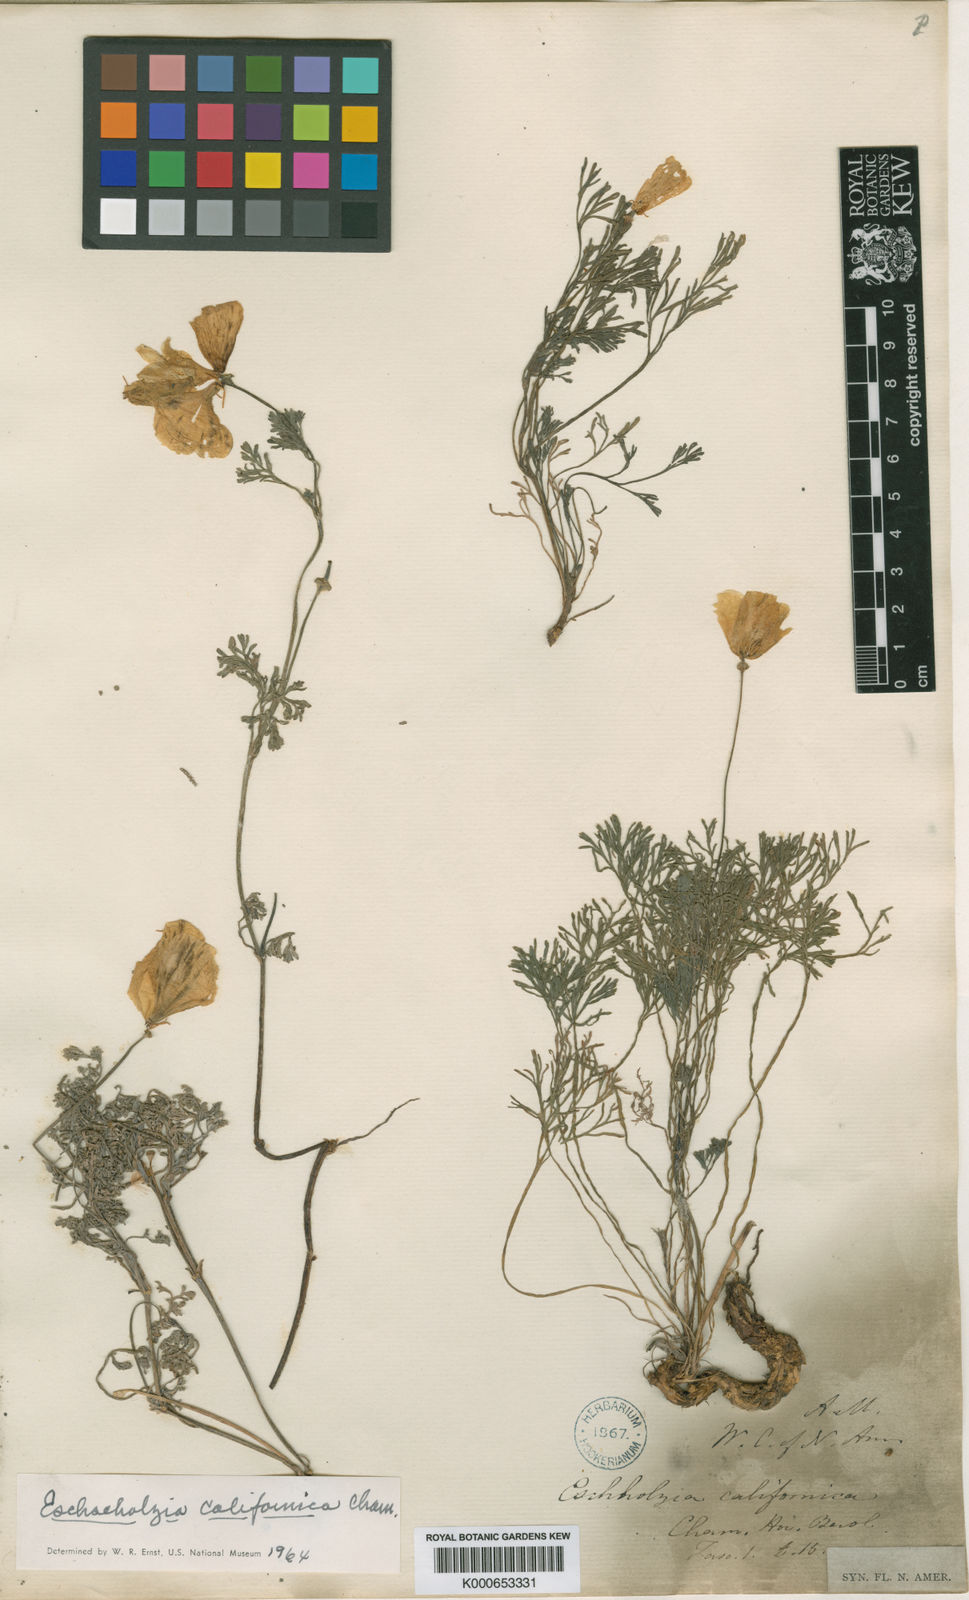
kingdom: Plantae
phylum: Tracheophyta
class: Magnoliopsida
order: Ranunculales
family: Papaveraceae
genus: Eschscholzia
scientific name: Eschscholzia californica
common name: California poppy
